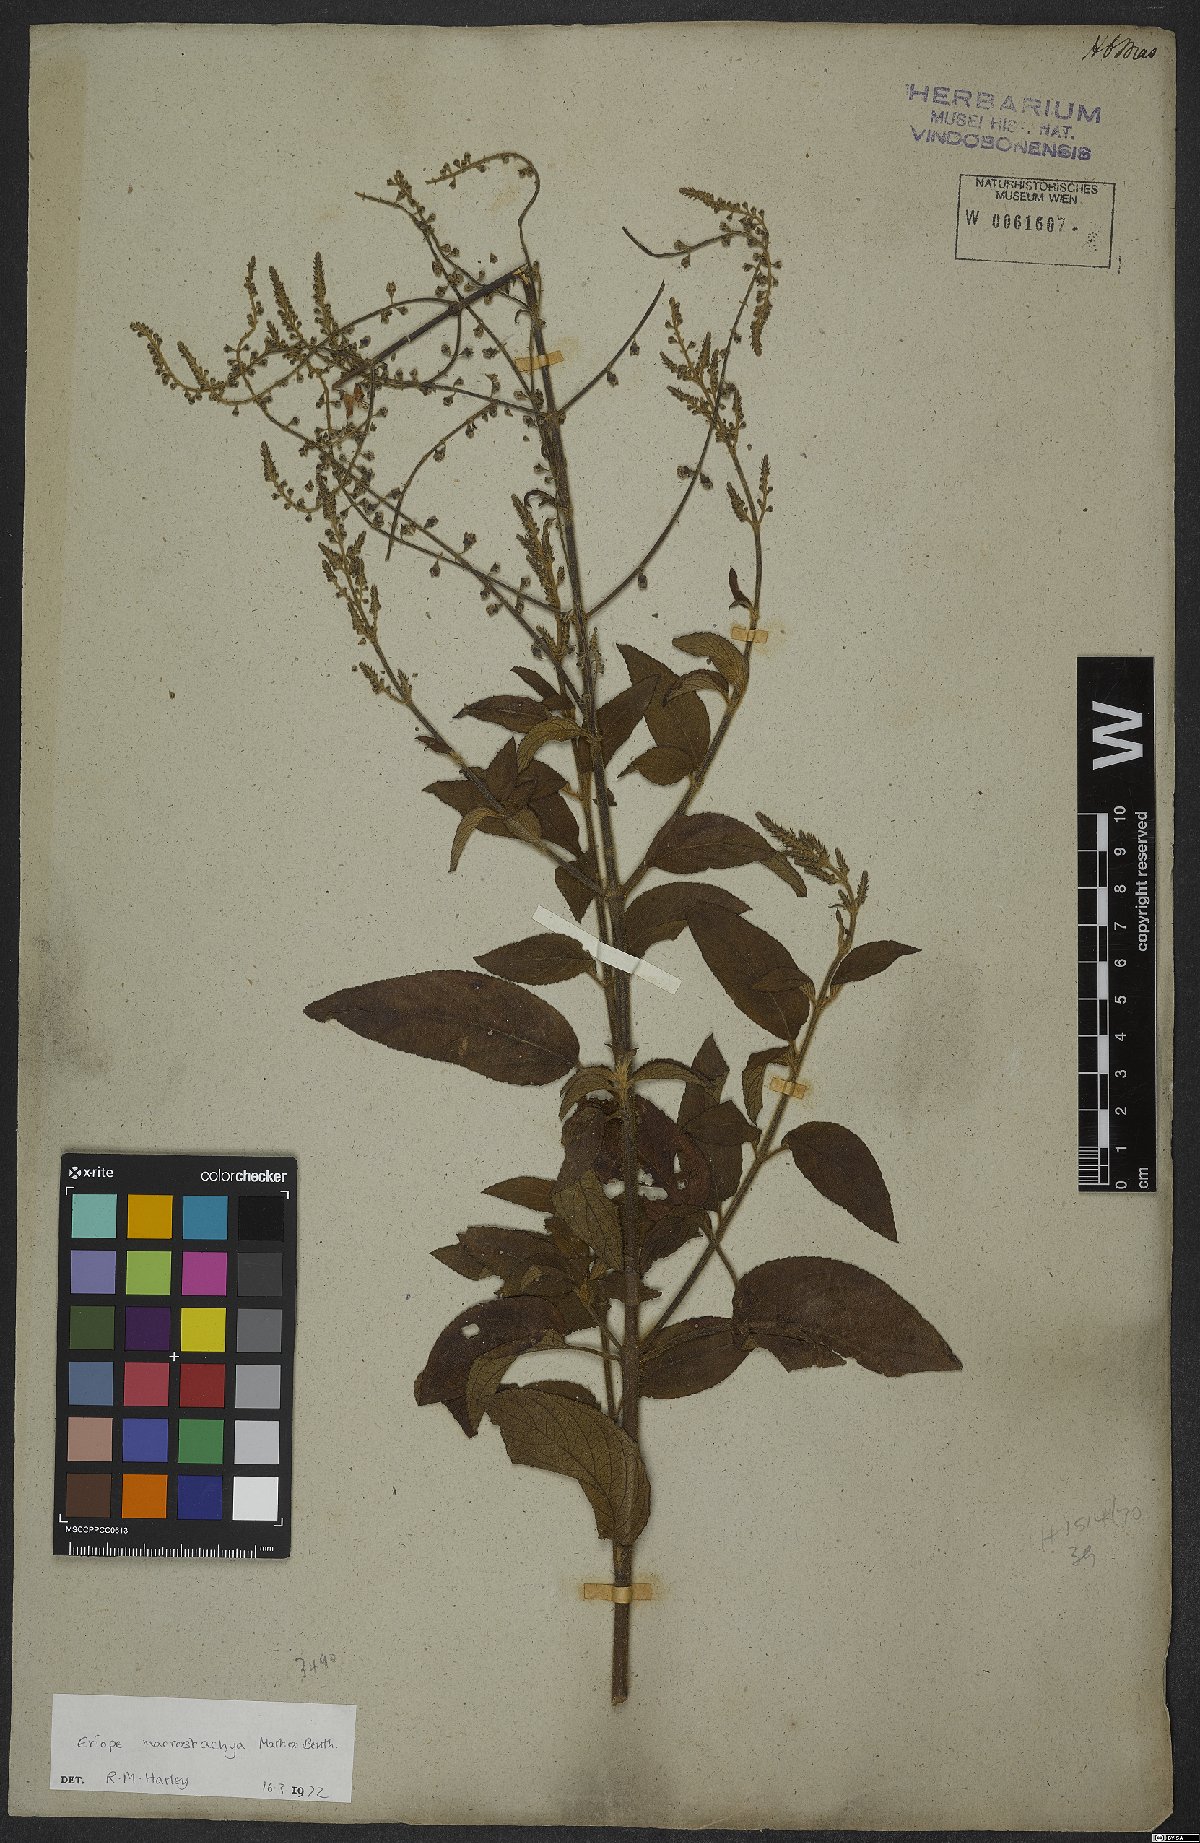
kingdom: Plantae
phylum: Tracheophyta
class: Magnoliopsida
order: Lamiales
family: Lamiaceae
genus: Eriope
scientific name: Eriope macrostachya
